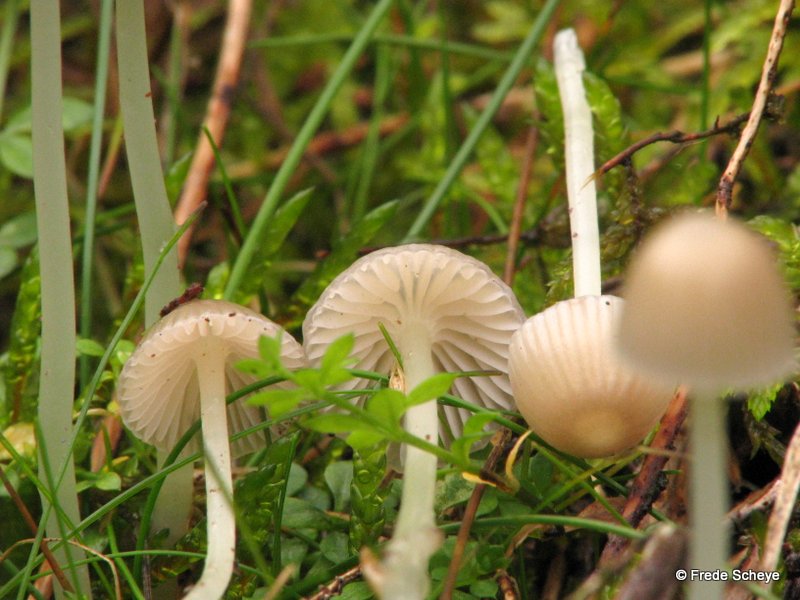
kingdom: Fungi
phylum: Basidiomycota
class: Agaricomycetes
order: Agaricales
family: Mycenaceae
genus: Mycena
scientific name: Mycena epipterygia
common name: gulstokket huesvamp
